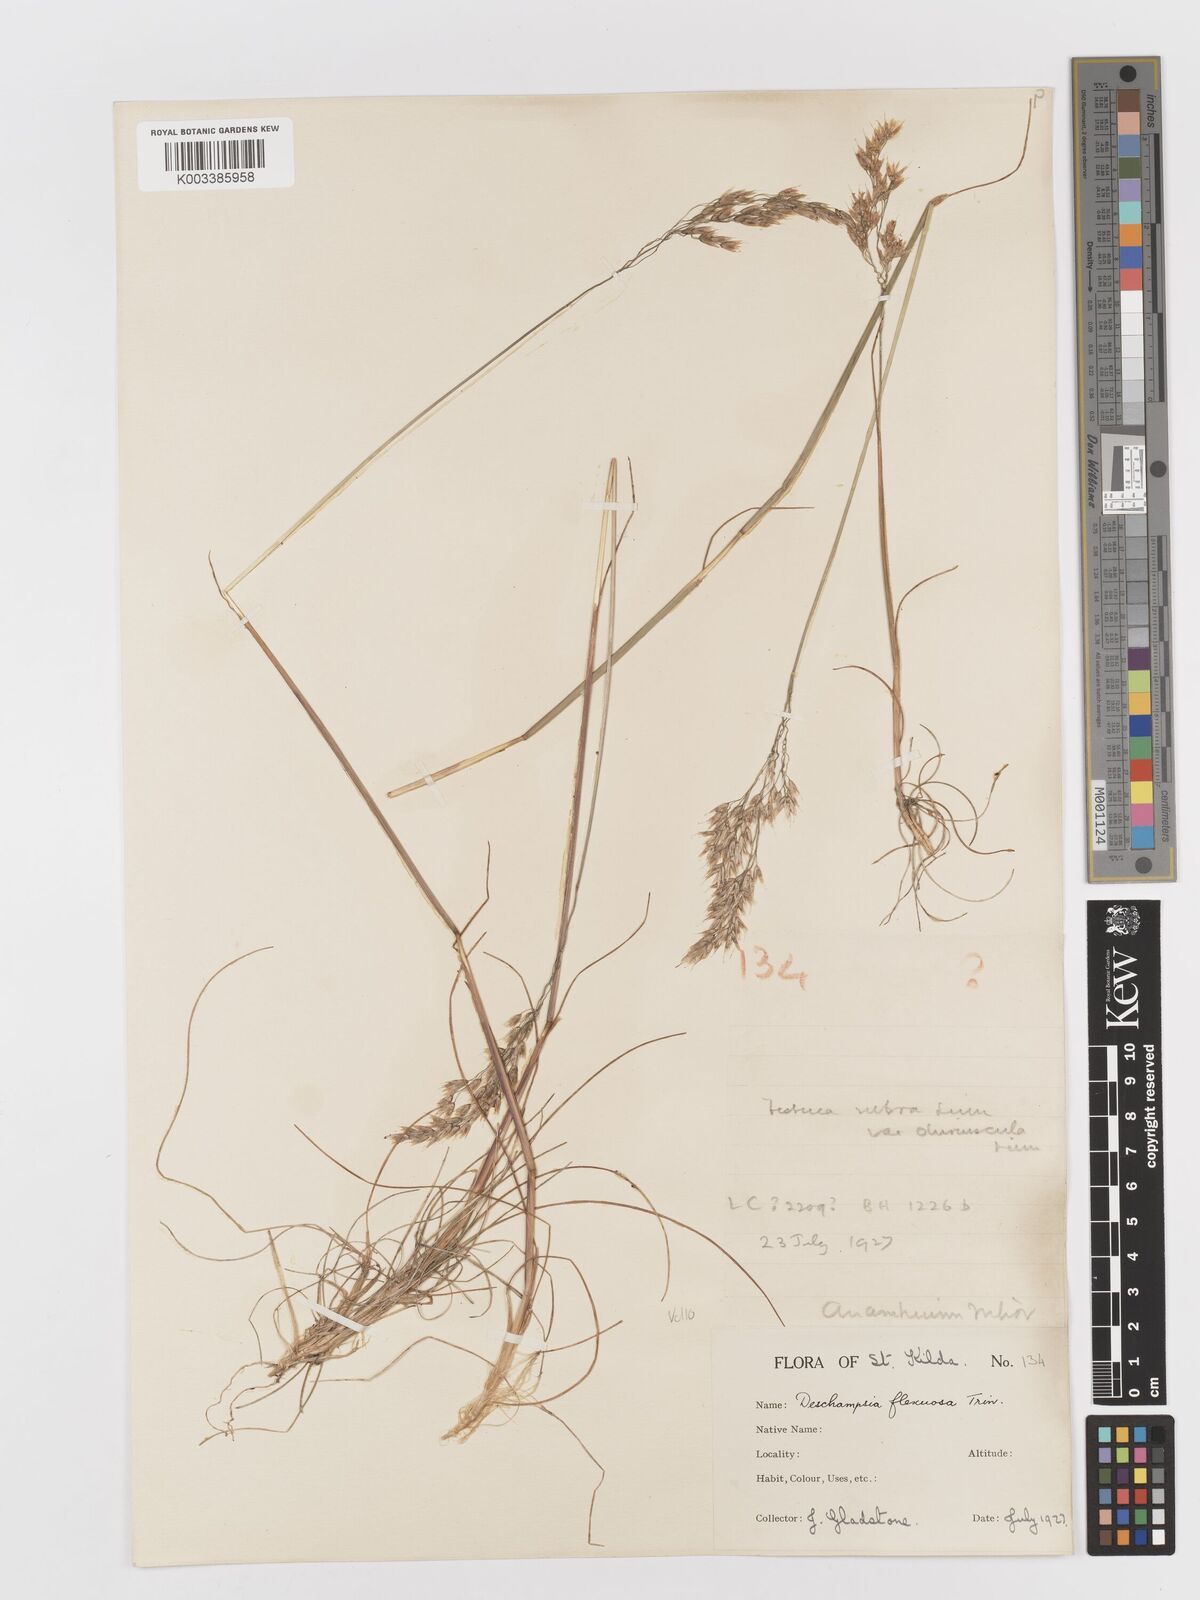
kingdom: Plantae
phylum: Tracheophyta
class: Liliopsida
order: Poales
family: Poaceae
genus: Avenella
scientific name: Avenella flexuosa
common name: Wavy hairgrass
